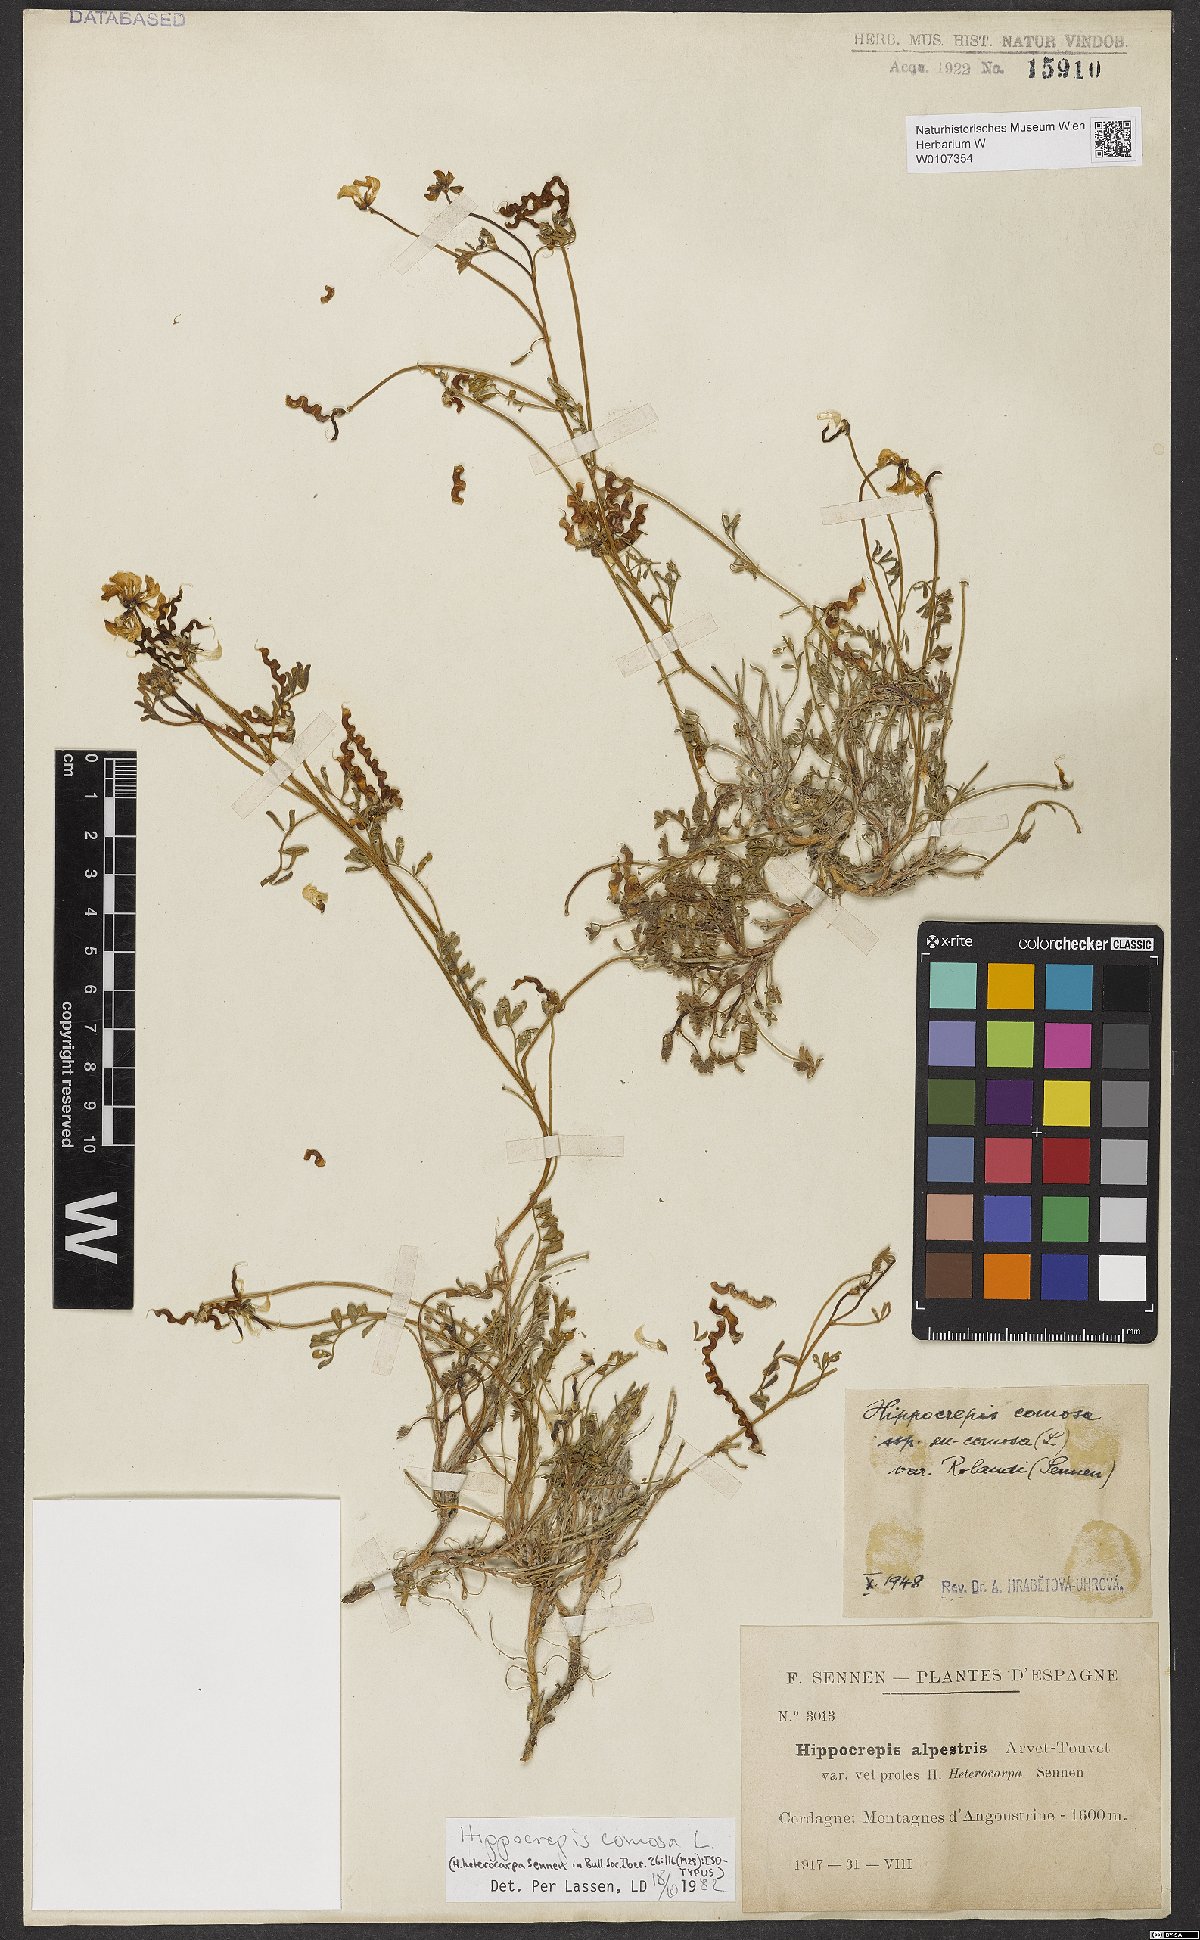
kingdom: Plantae
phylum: Tracheophyta
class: Magnoliopsida
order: Fabales
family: Fabaceae
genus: Hippocrepis
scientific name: Hippocrepis comosa
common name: Horseshoe vetch
